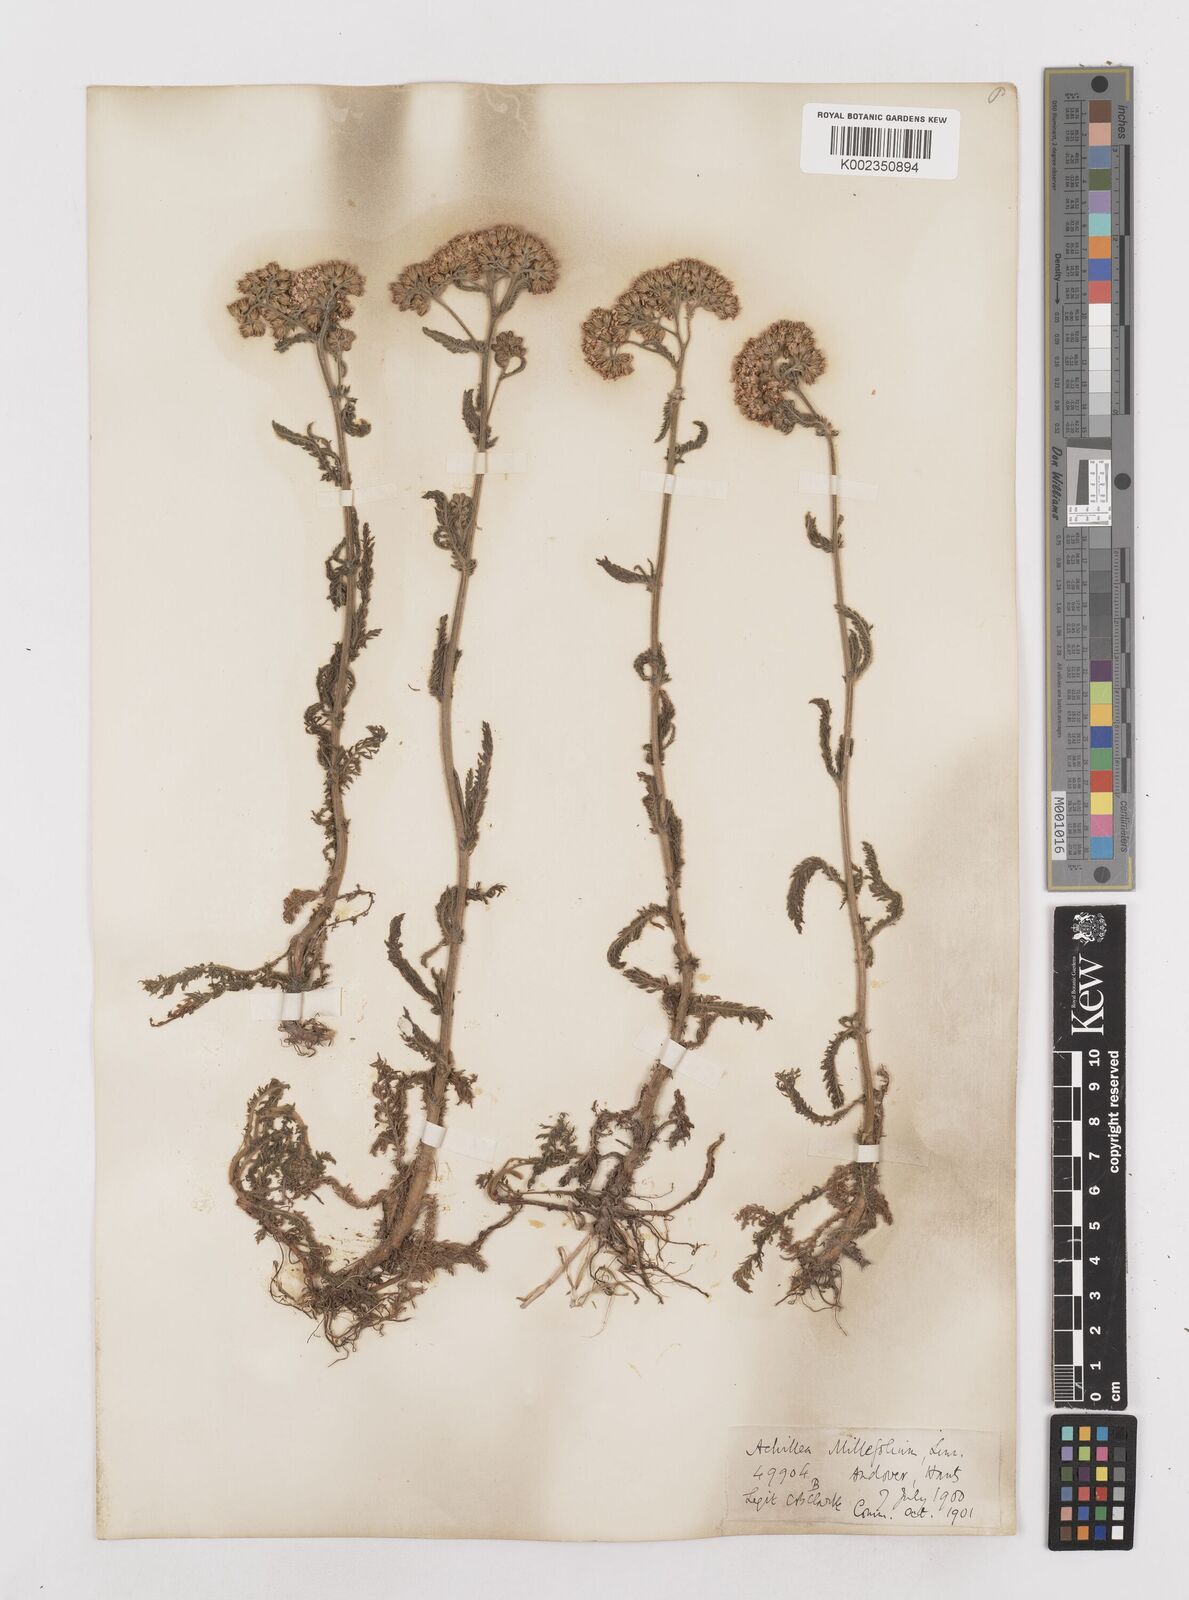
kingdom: Plantae
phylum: Tracheophyta
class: Magnoliopsida
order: Asterales
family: Asteraceae
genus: Achillea
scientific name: Achillea millefolium
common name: Yarrow
